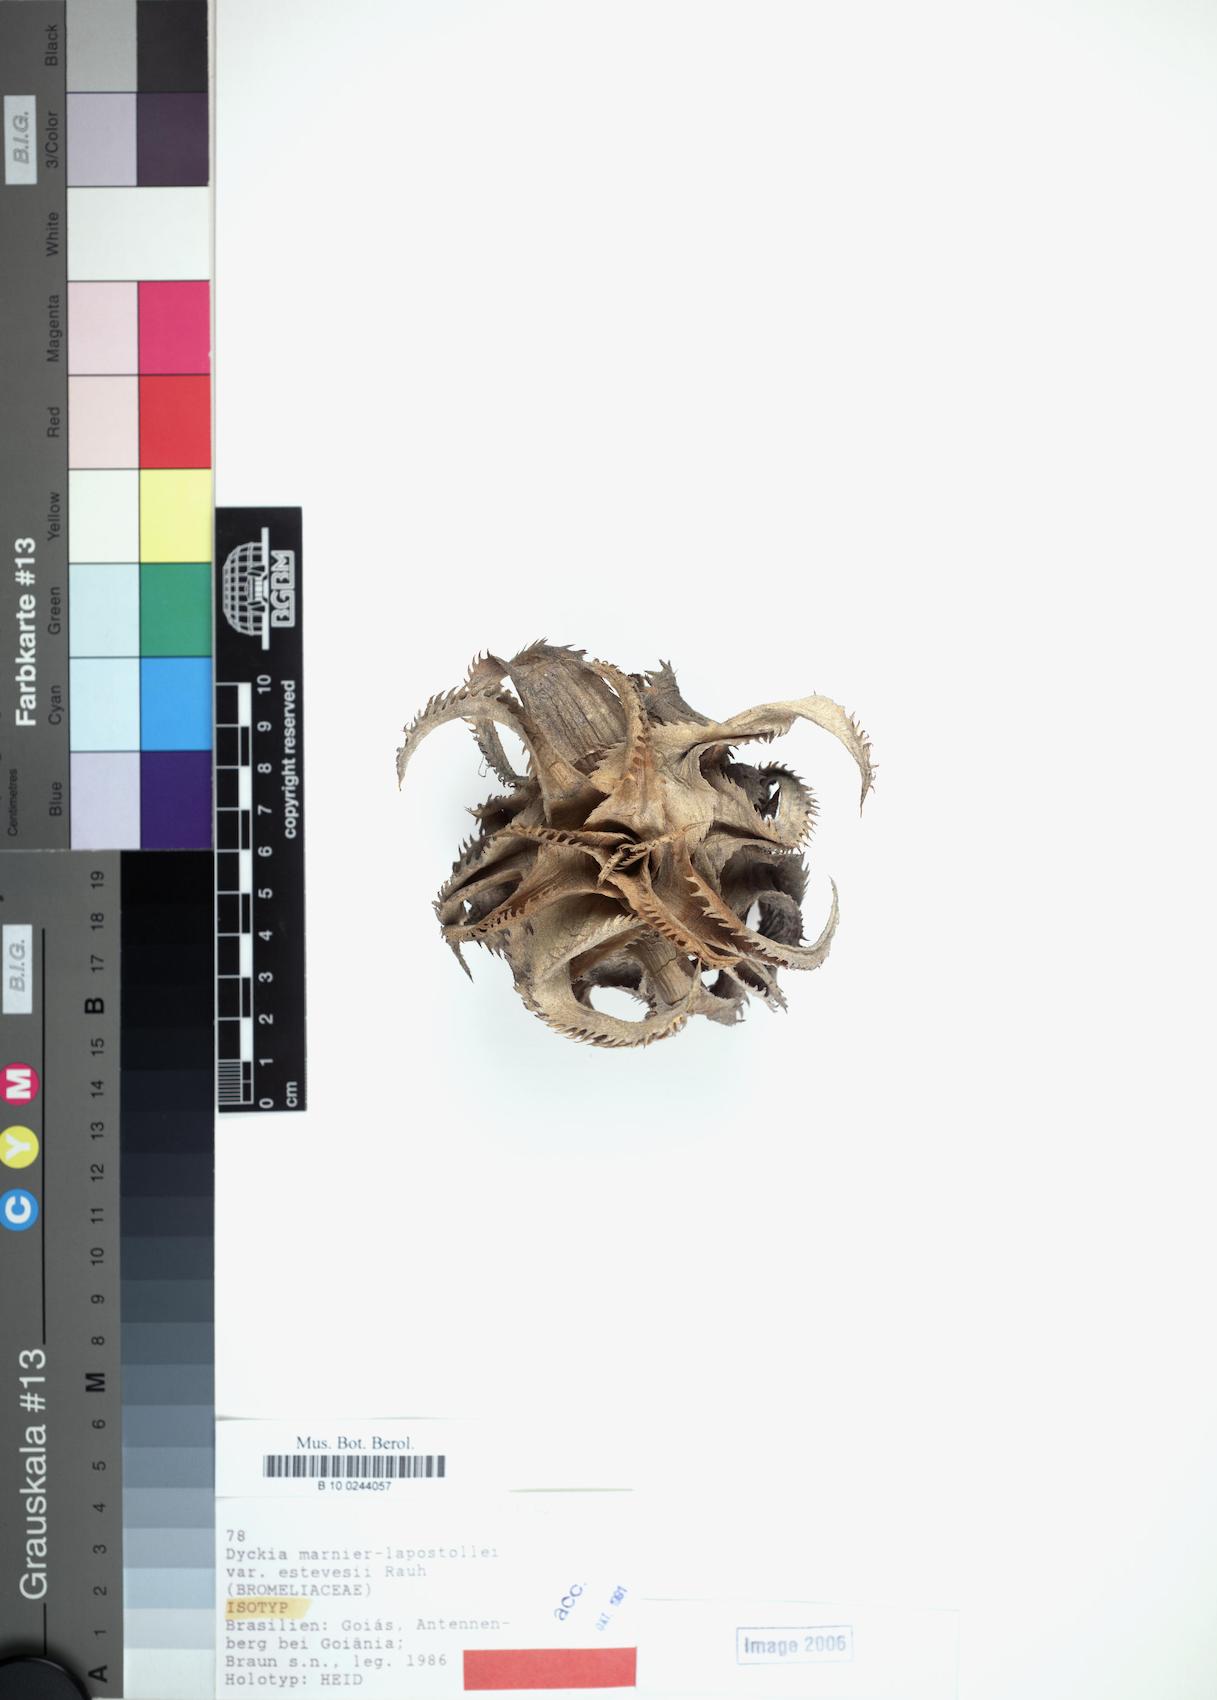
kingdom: Plantae
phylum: Tracheophyta
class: Liliopsida
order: Poales
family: Bromeliaceae
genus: Dyckia
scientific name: Dyckia marnier-lapostollei
